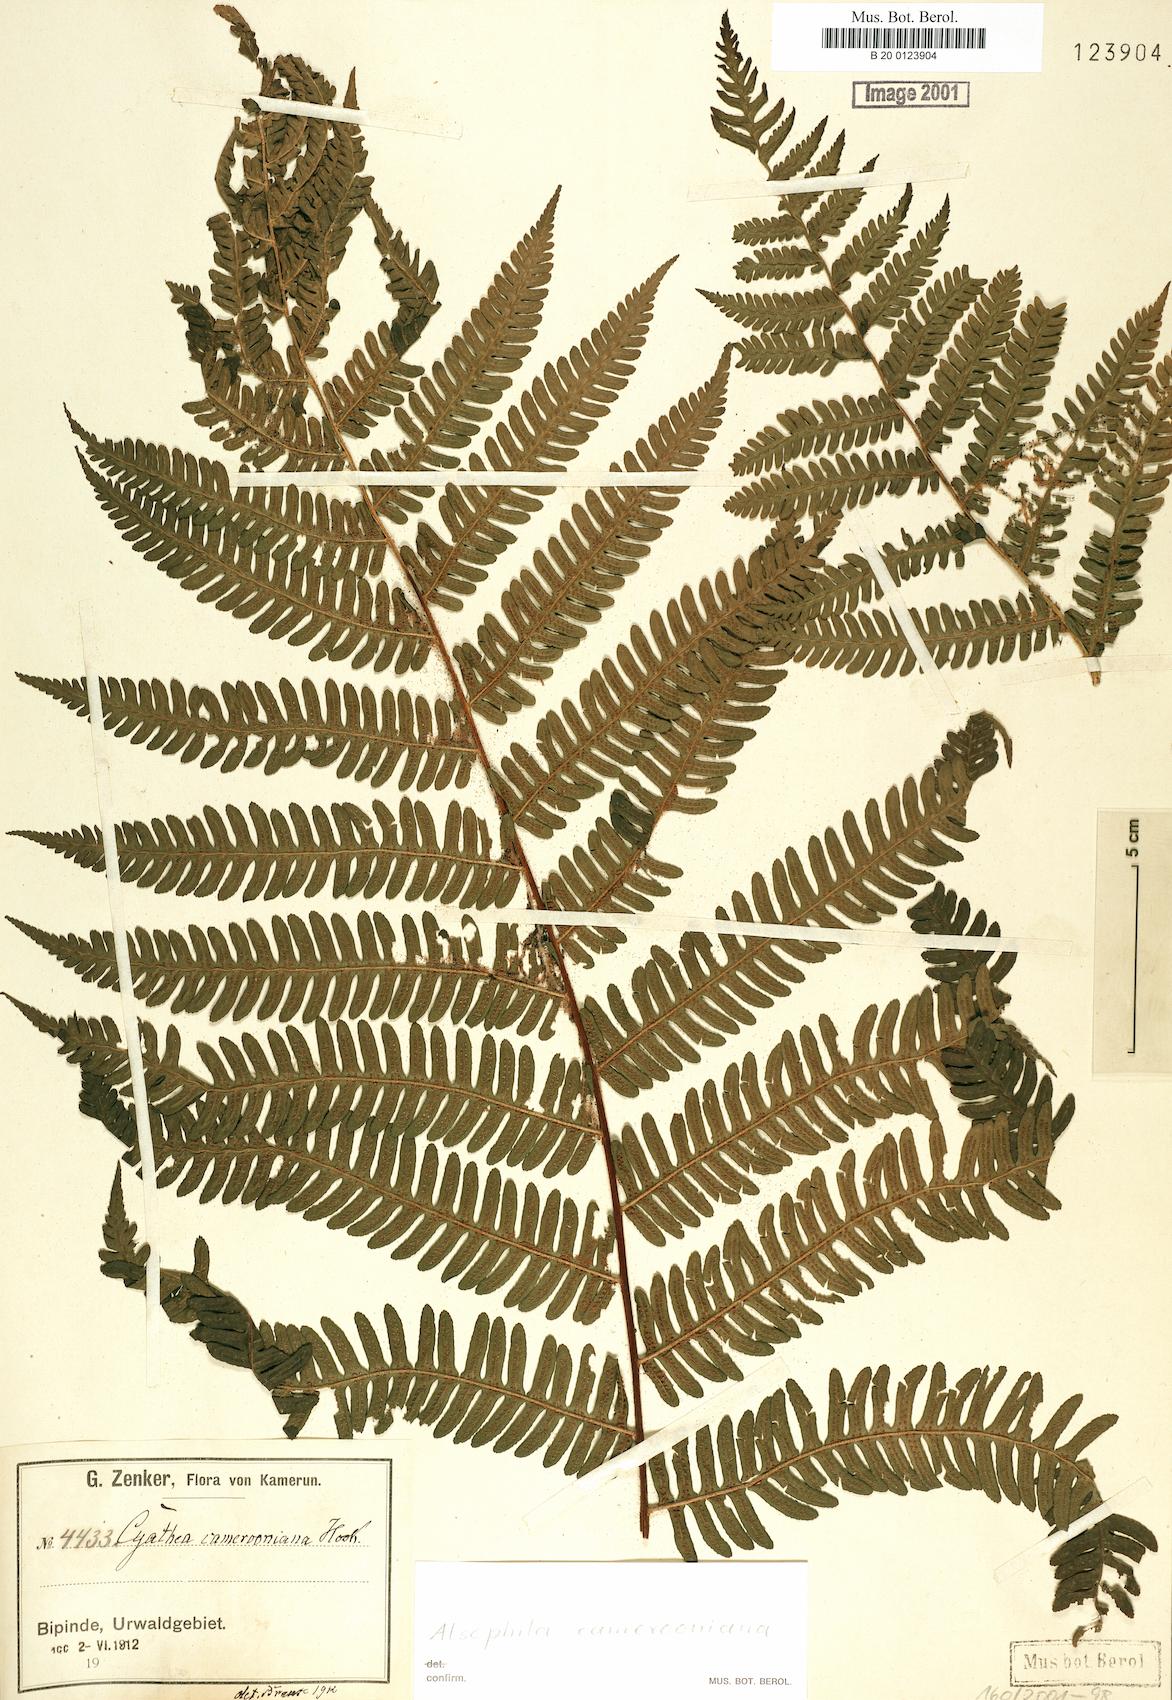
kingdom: Plantae
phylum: Tracheophyta
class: Polypodiopsida
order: Cyatheales
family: Cyatheaceae
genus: Alsophila
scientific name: Alsophila camerooniana
